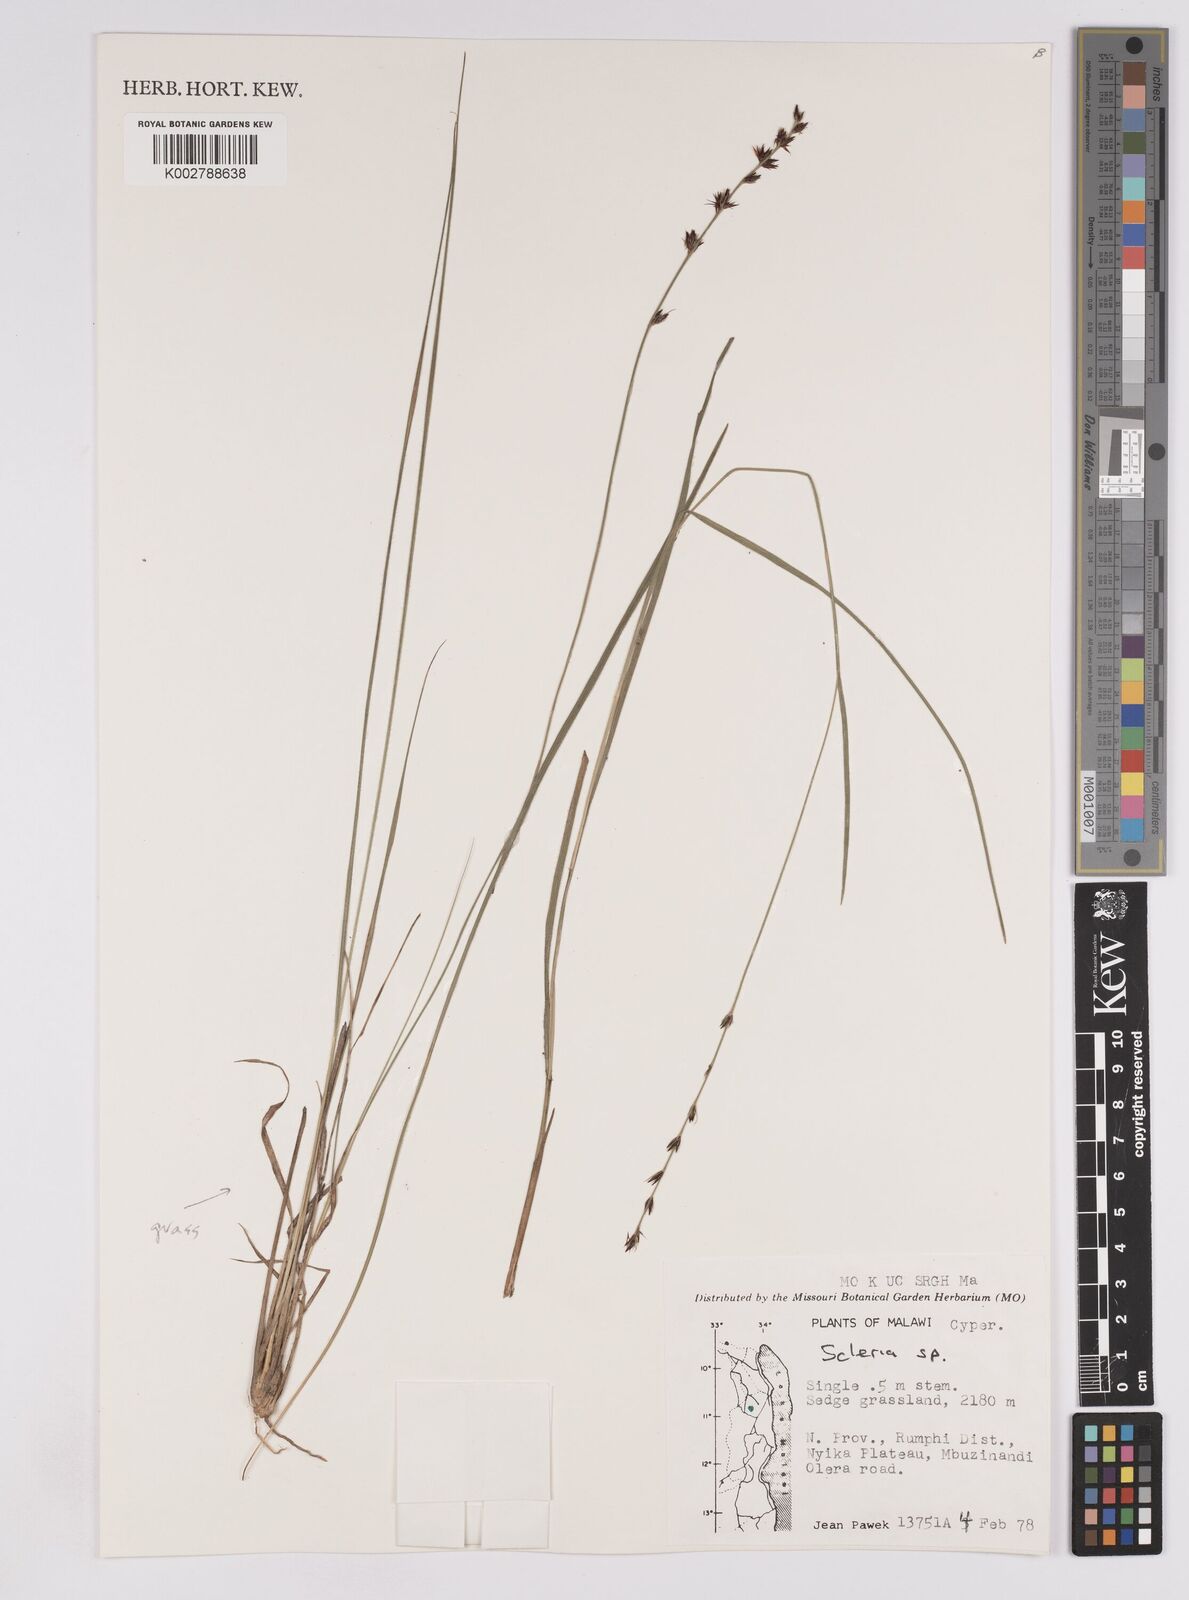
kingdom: Plantae
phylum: Tracheophyta
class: Liliopsida
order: Poales
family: Cyperaceae
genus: Scleria
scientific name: Scleria
